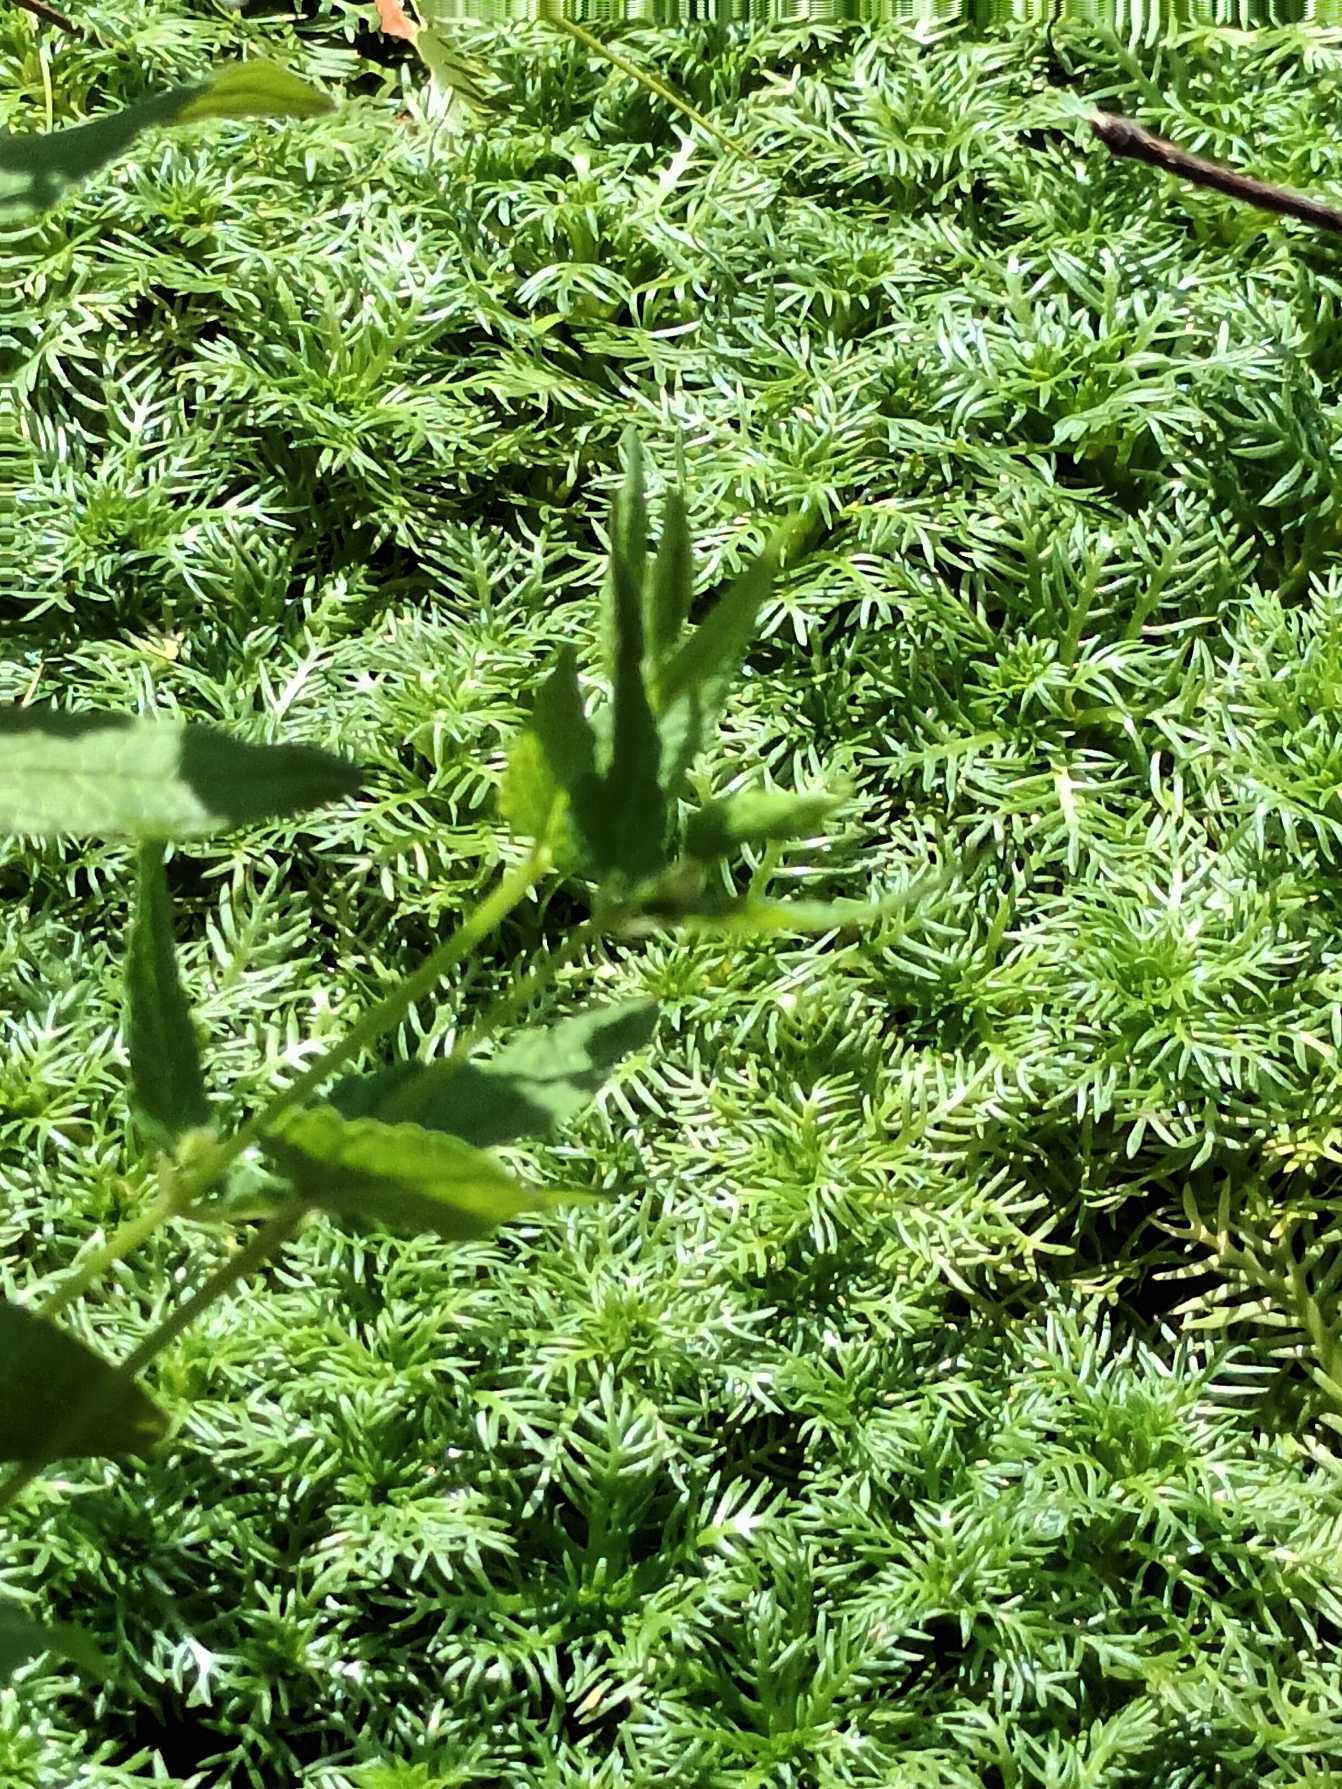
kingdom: Plantae
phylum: Tracheophyta
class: Magnoliopsida
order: Ericales
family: Primulaceae
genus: Hottonia
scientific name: Hottonia palustris
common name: Vandrøllike
